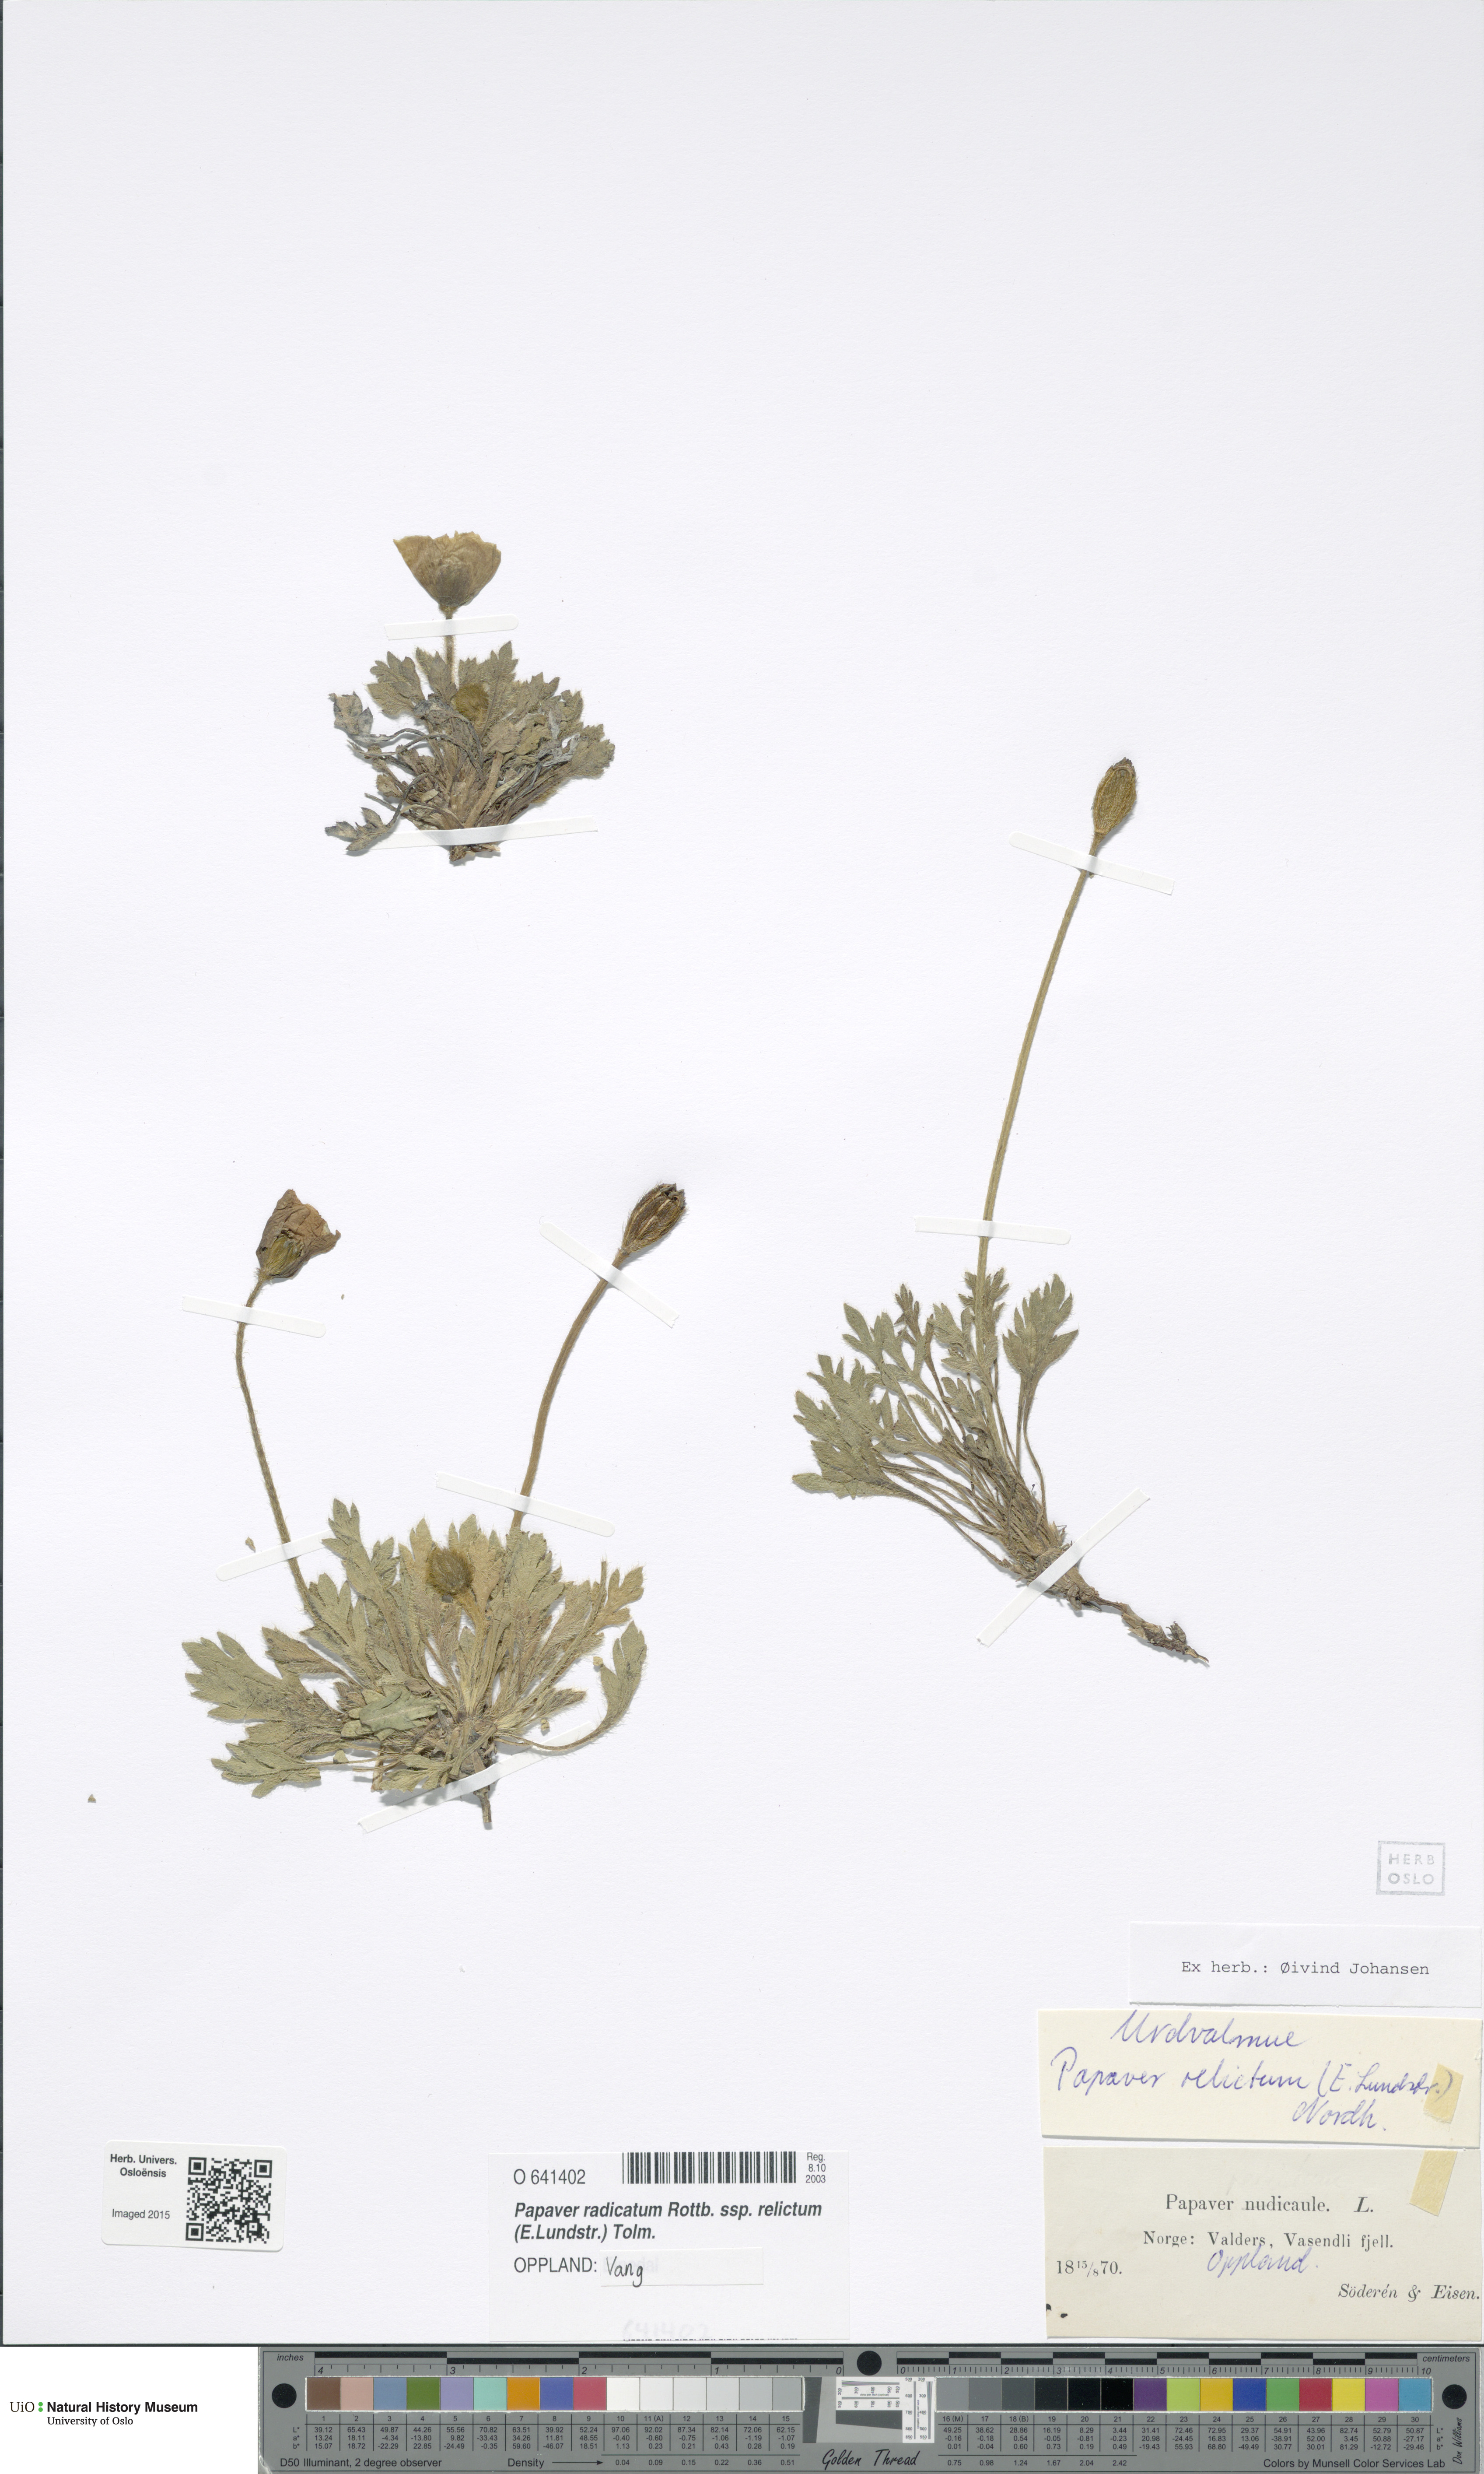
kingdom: Plantae
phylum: Tracheophyta
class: Magnoliopsida
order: Ranunculales
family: Papaveraceae
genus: Papaver
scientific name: Papaver radicatum
